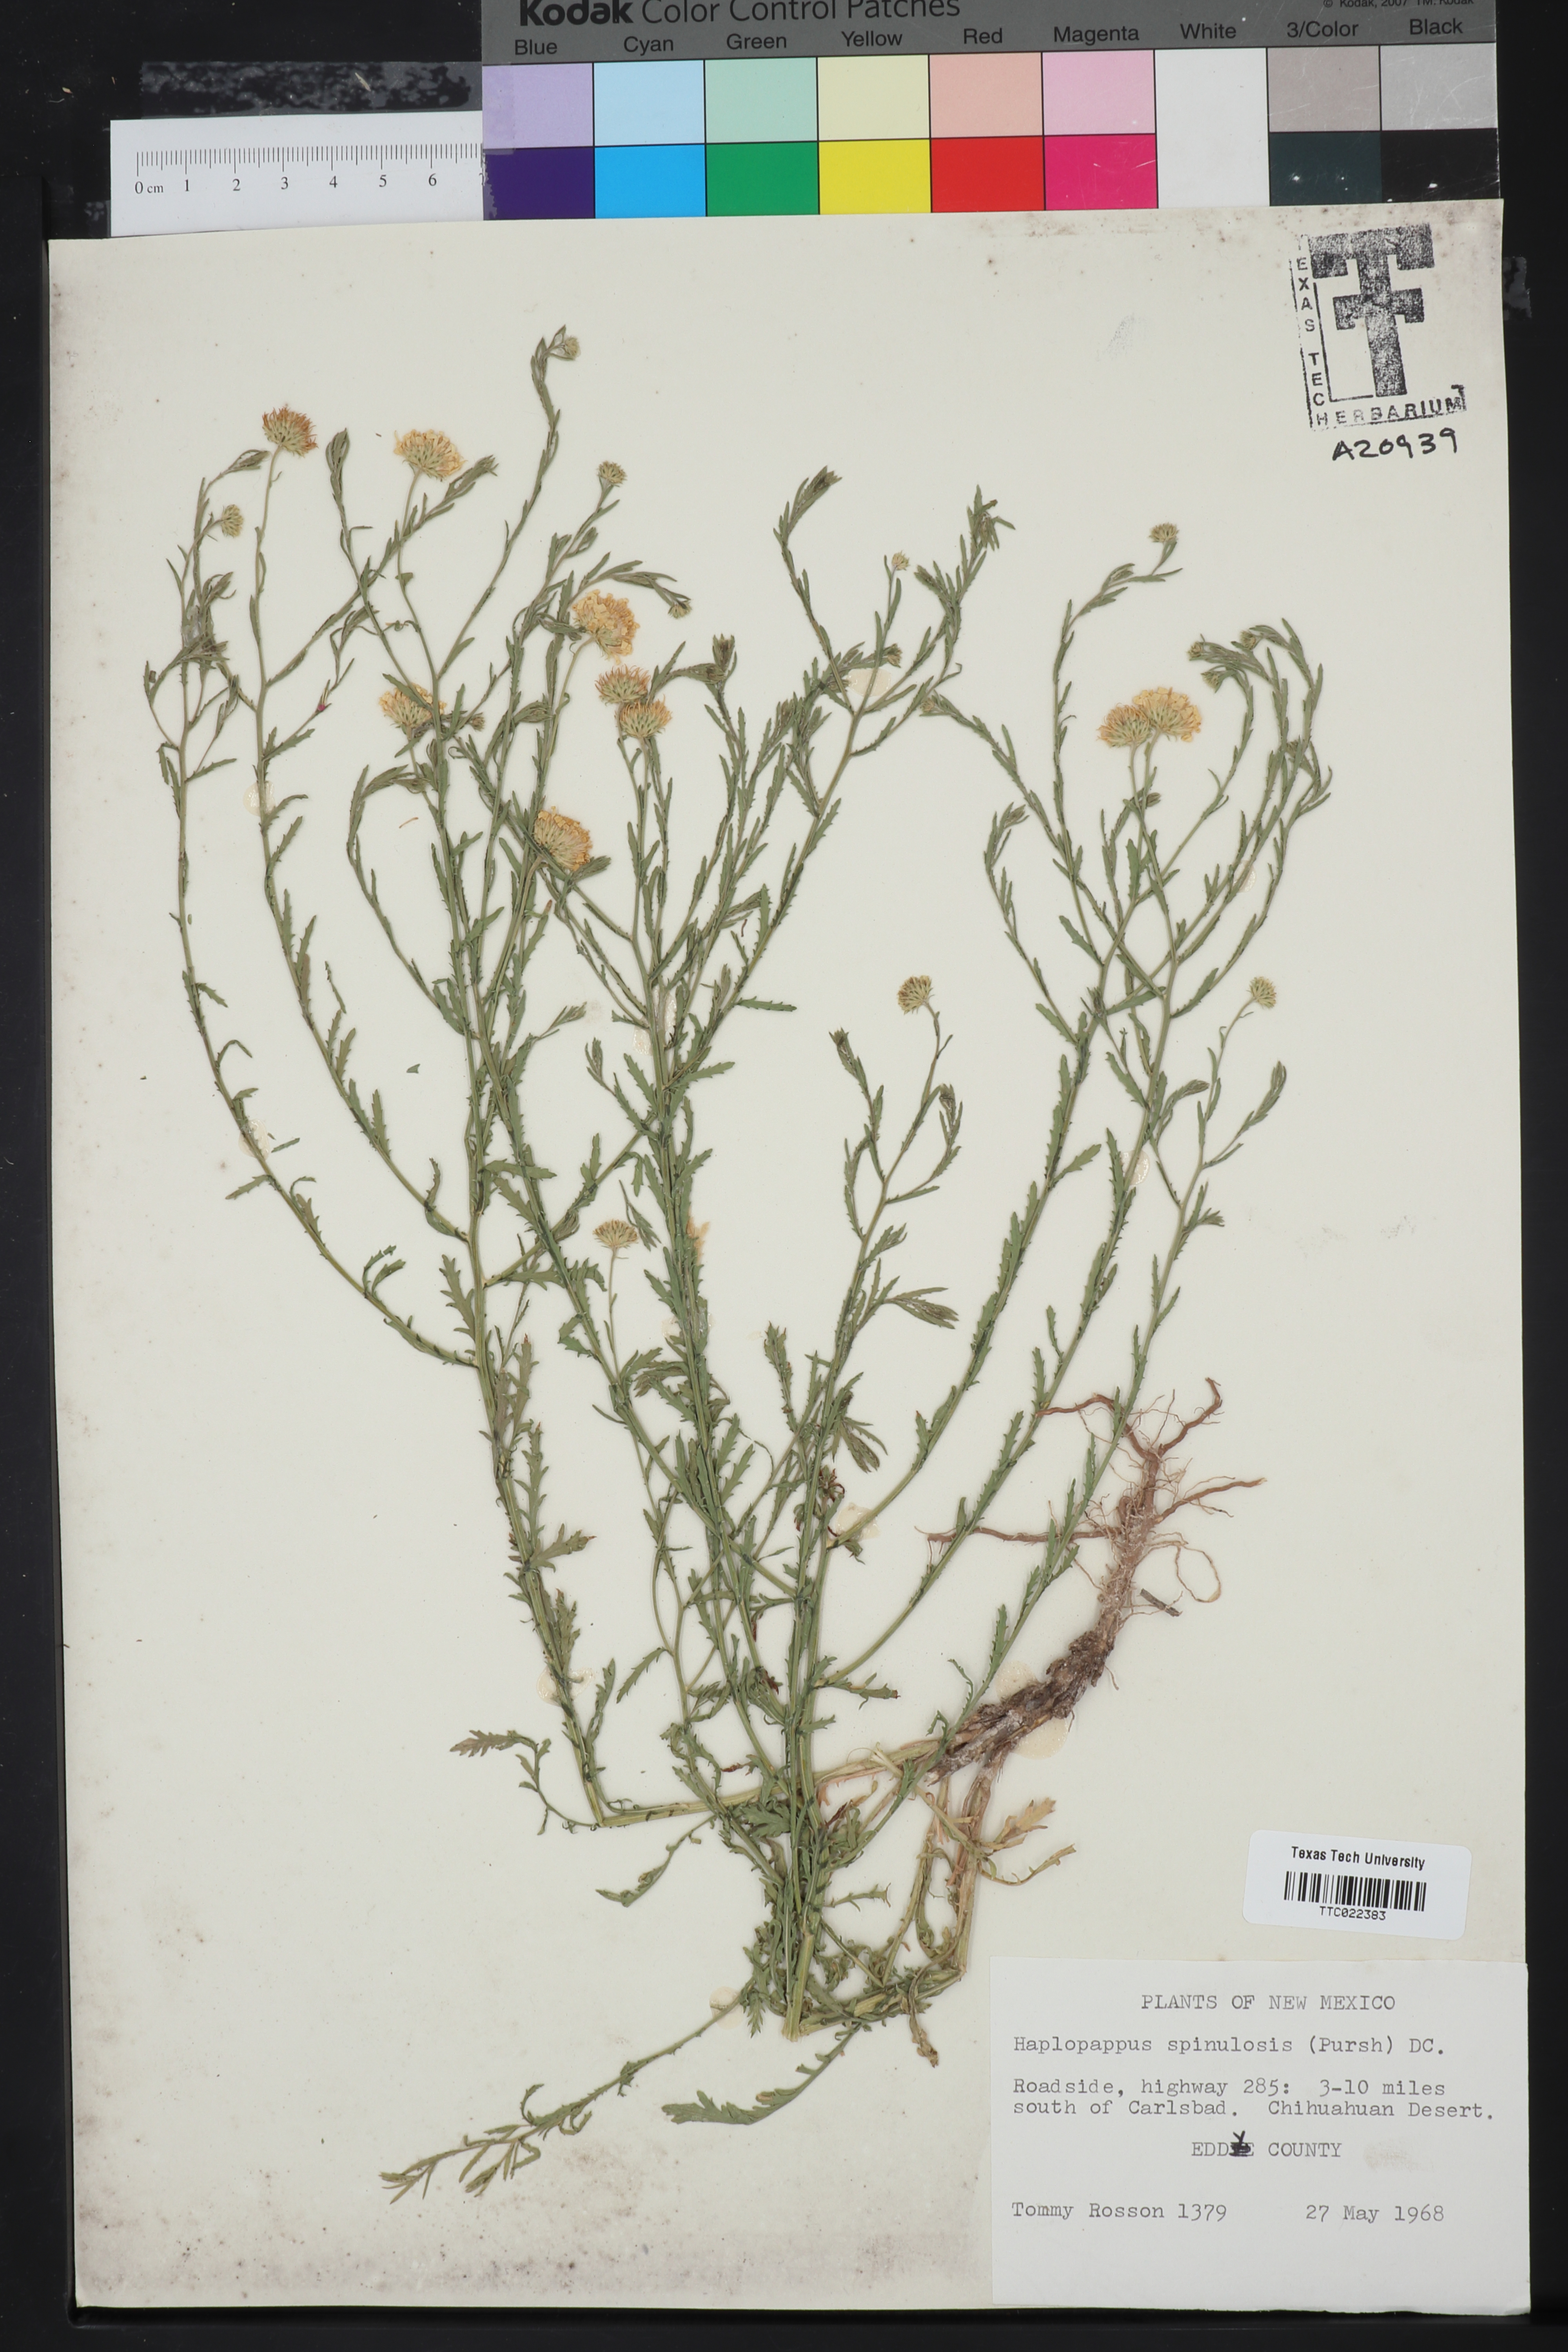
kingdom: Plantae
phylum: Tracheophyta
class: Magnoliopsida
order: Asterales
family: Asteraceae
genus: Xanthisma
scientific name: Xanthisma spinulosum
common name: Spiny goldenweed
